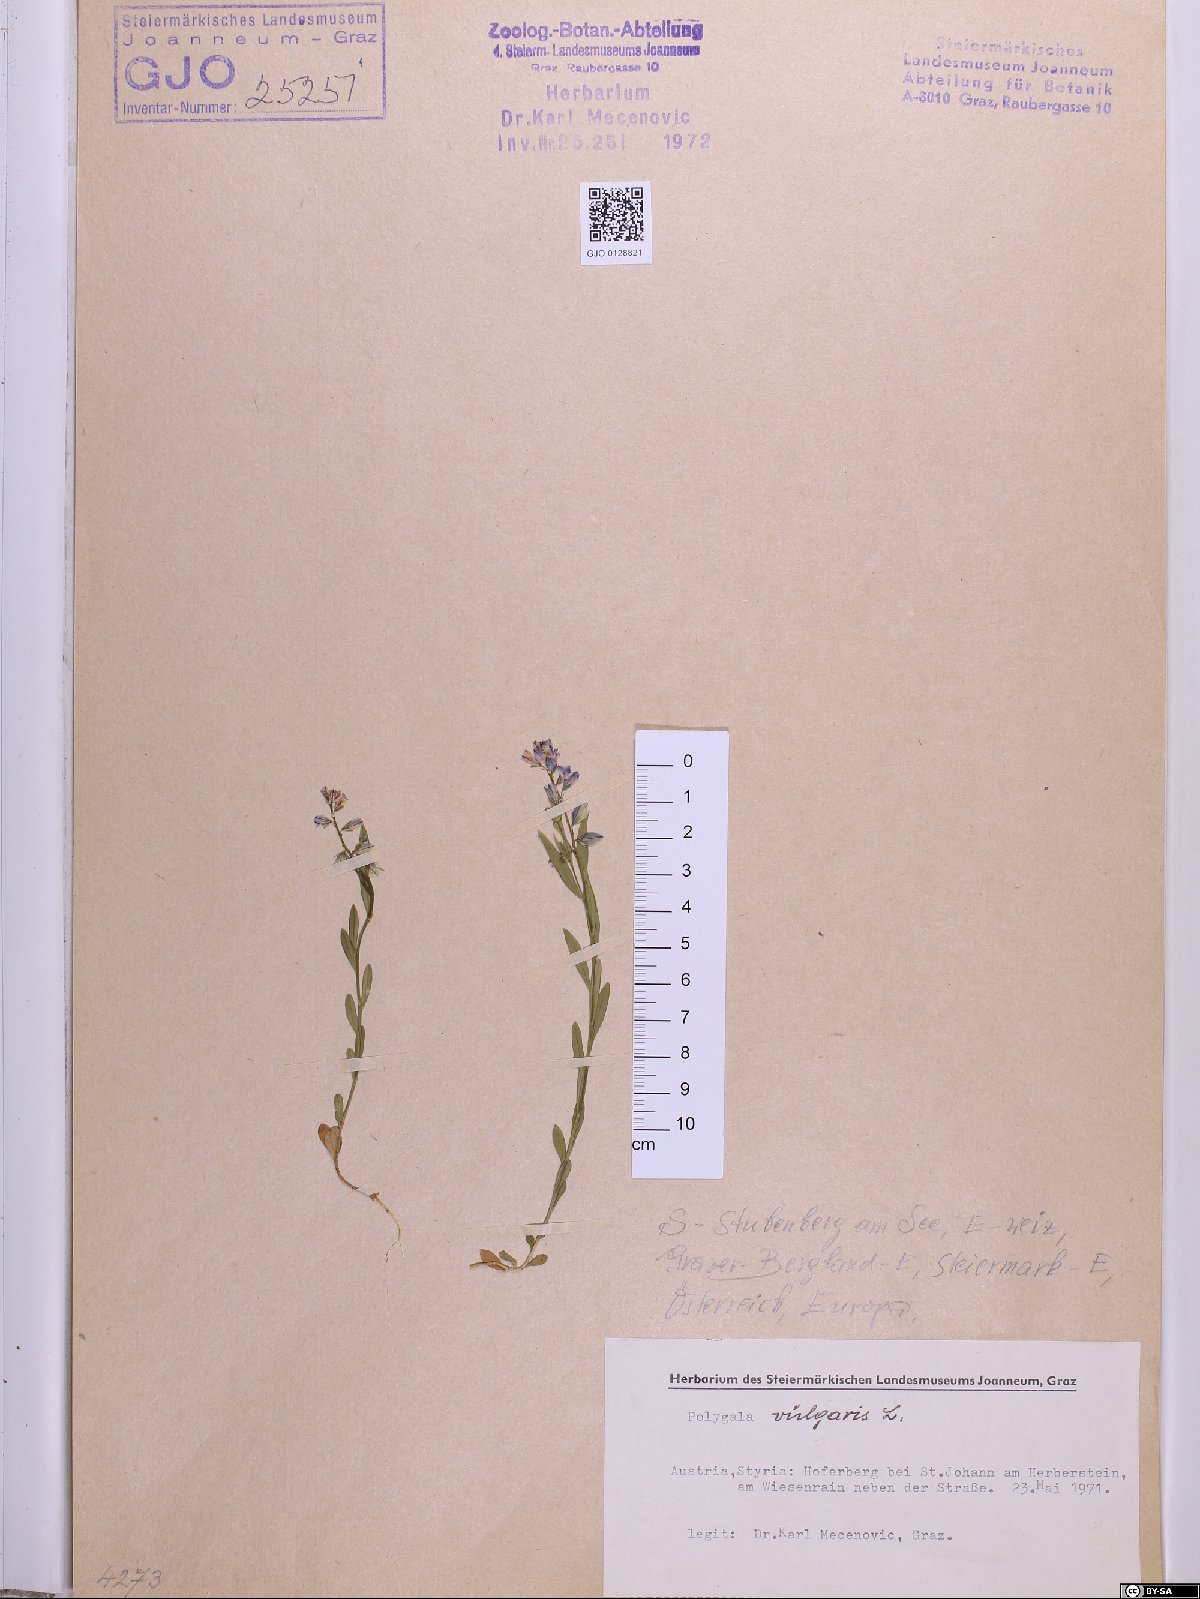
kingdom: Plantae
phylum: Tracheophyta
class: Magnoliopsida
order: Fabales
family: Polygalaceae
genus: Polygala
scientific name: Polygala vulgaris
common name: Common milkwort
